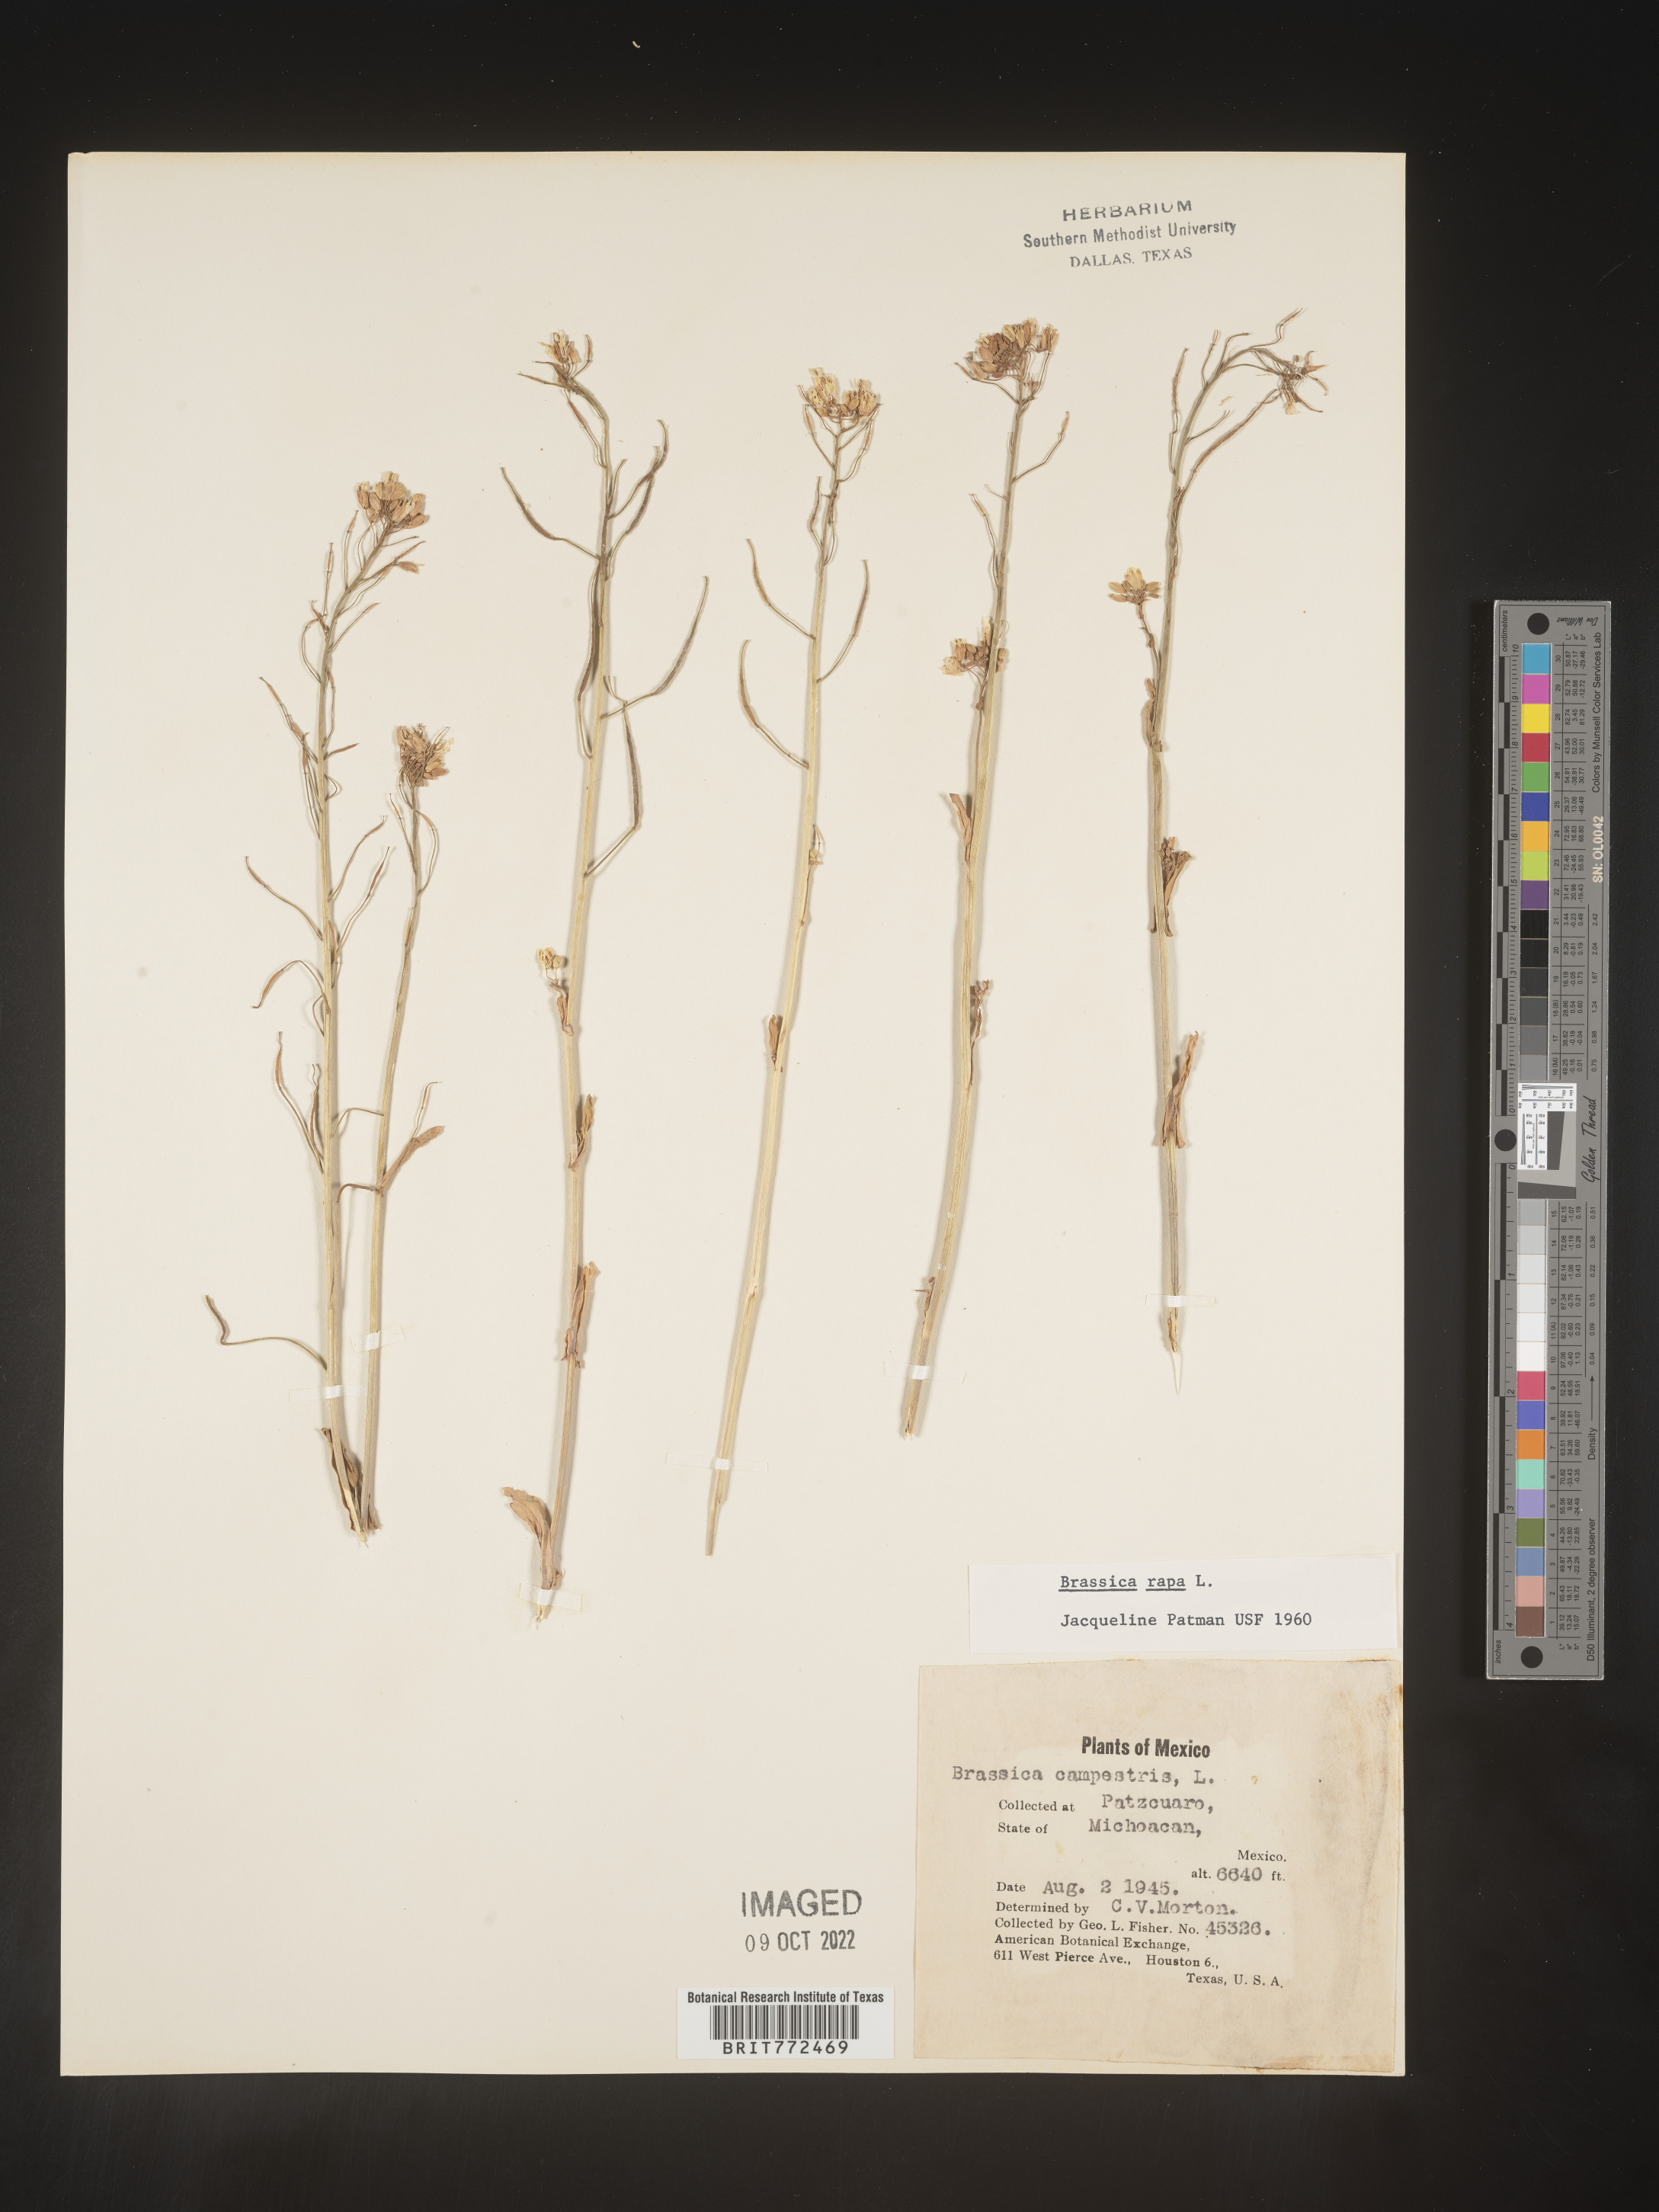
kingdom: Plantae
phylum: Tracheophyta
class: Magnoliopsida
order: Brassicales
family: Brassicaceae
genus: Brassica
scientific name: Brassica
